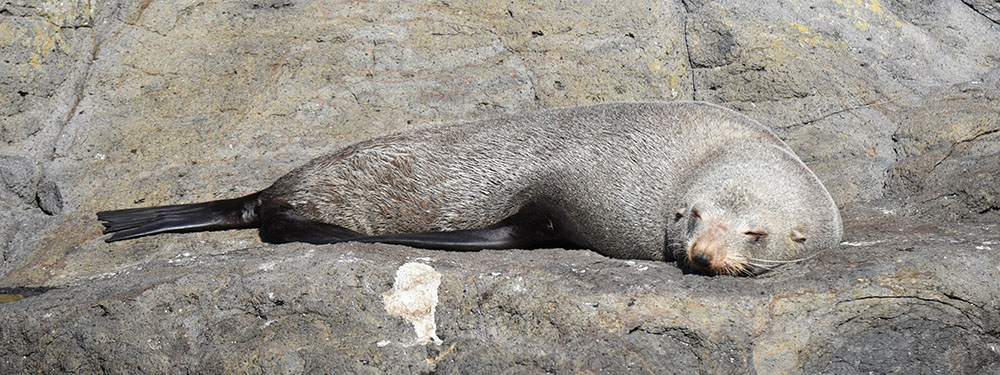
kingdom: Animalia
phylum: Chordata
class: Mammalia
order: Carnivora
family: Otariidae
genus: Arctocephalus
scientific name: Arctocephalus forsteri
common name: New zealand fur seal
